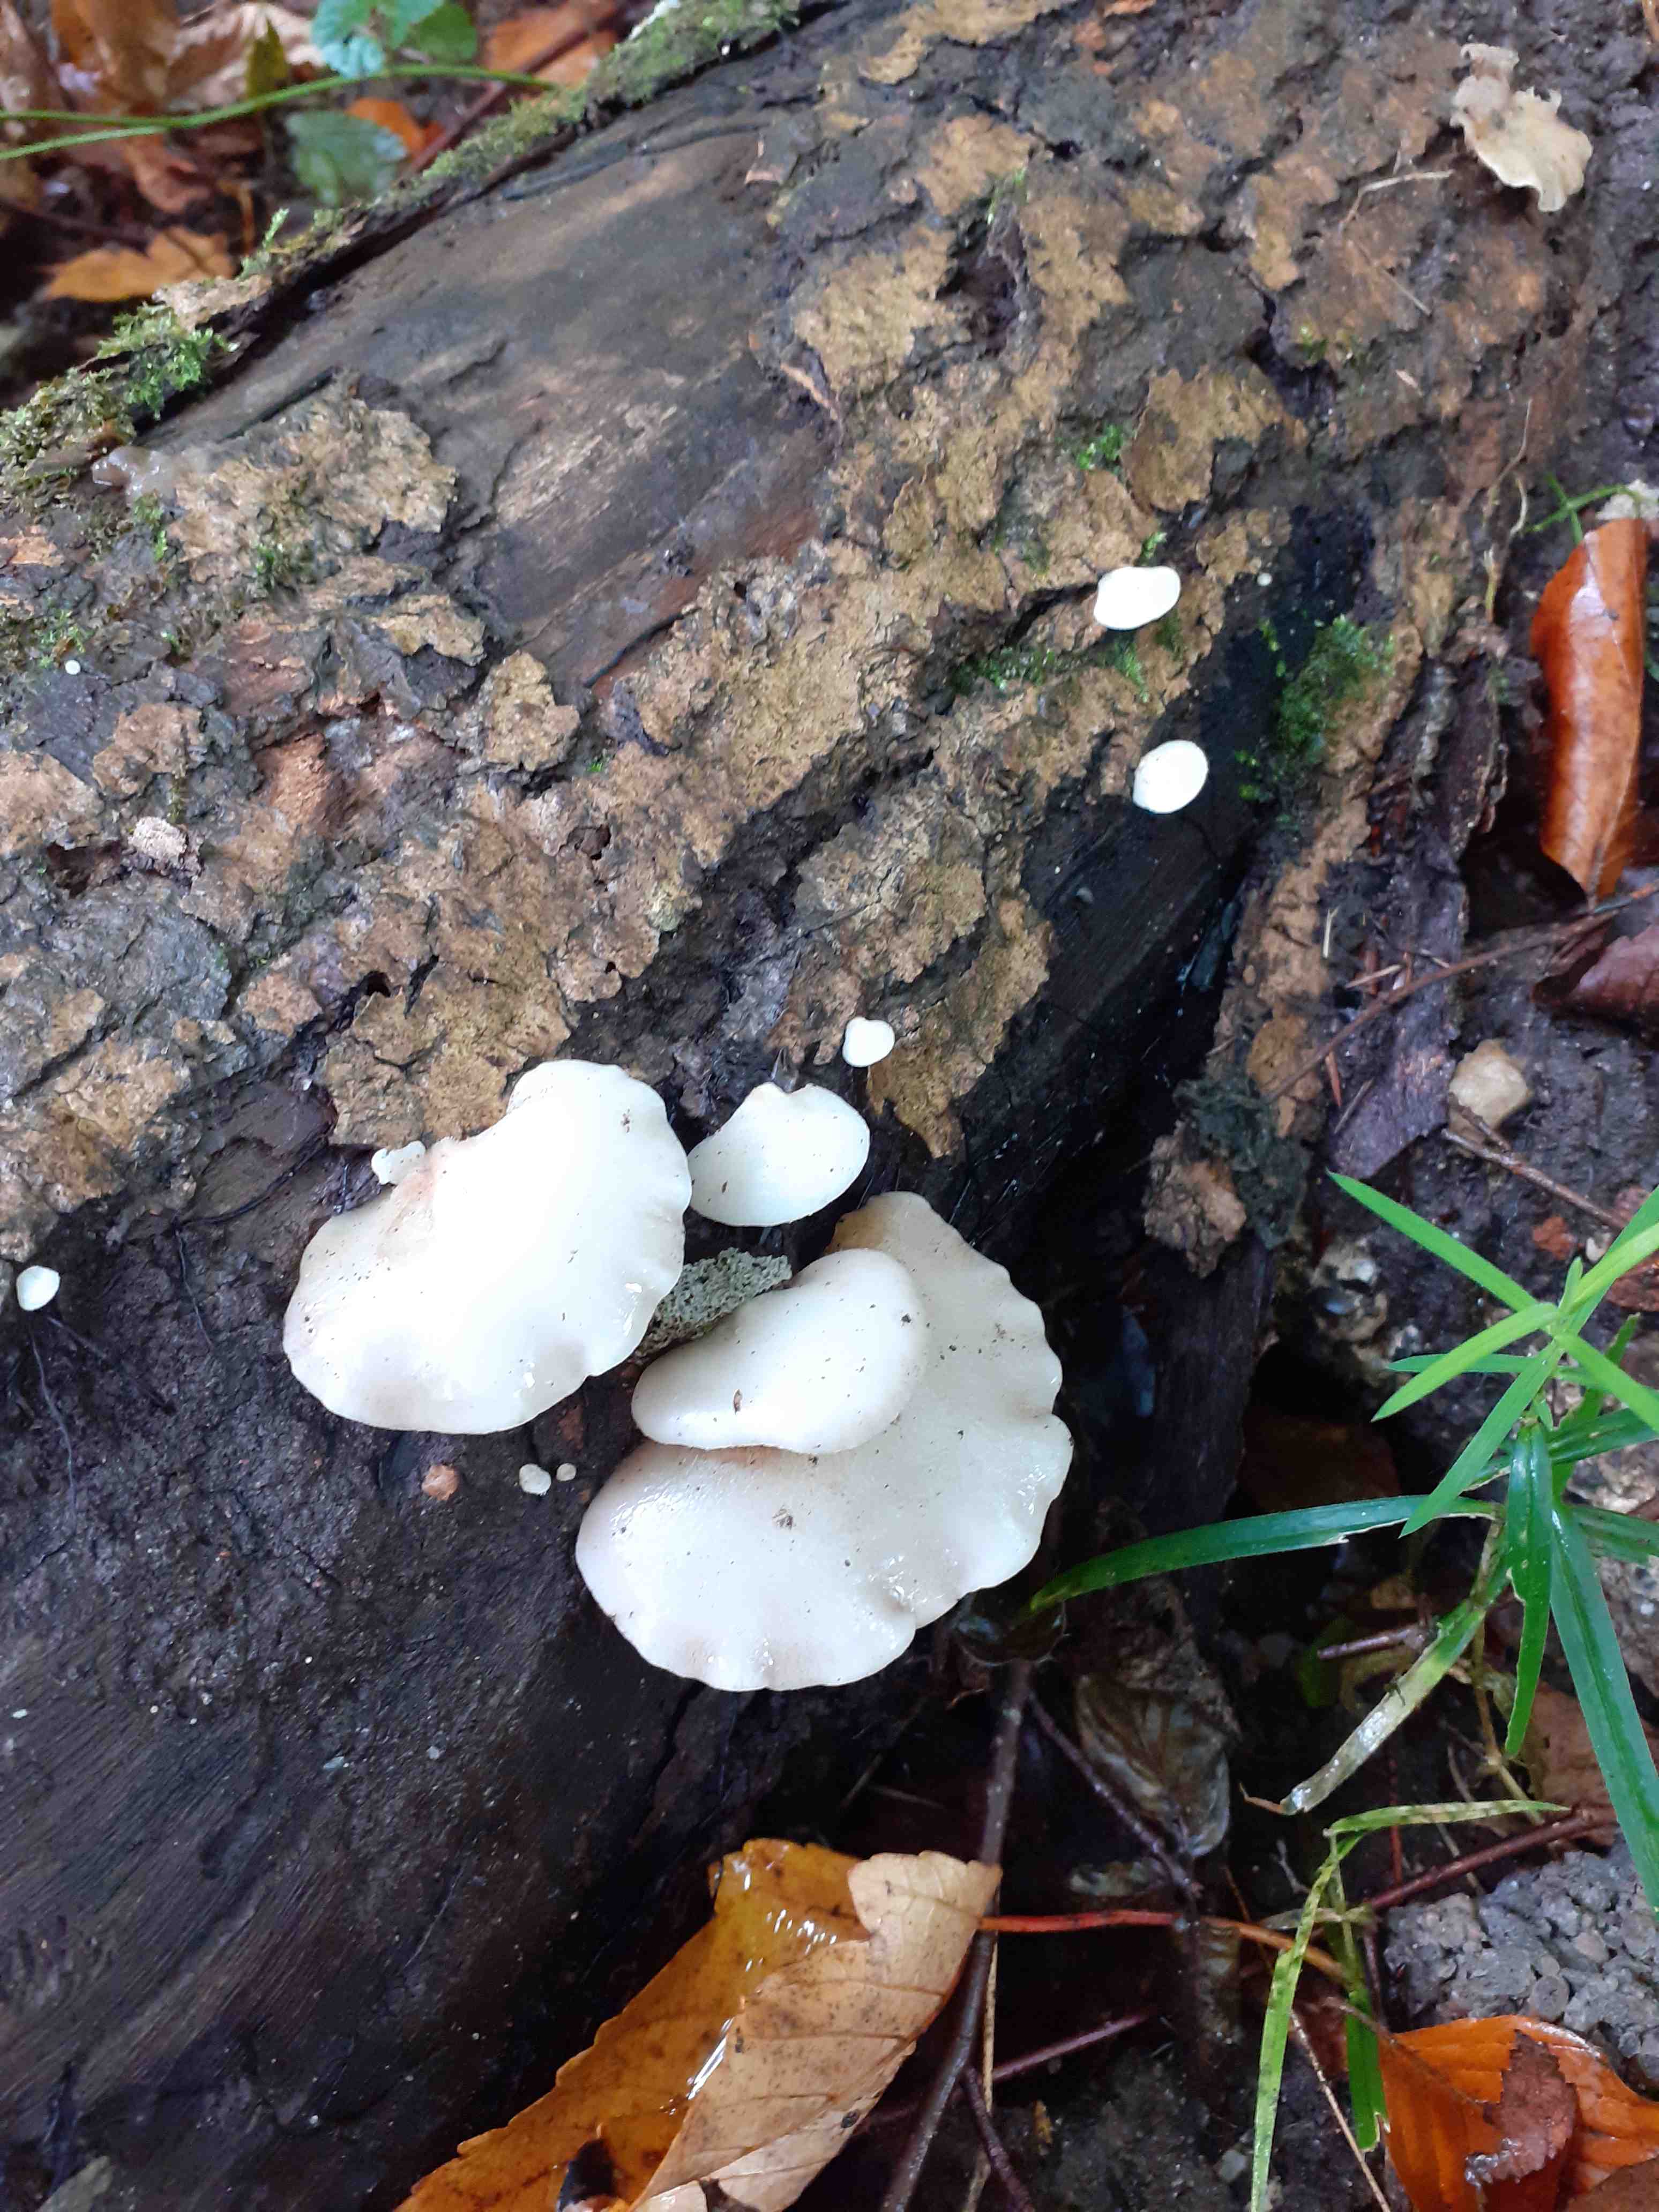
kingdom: Fungi
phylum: Basidiomycota
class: Agaricomycetes
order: Agaricales
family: Crepidotaceae
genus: Crepidotus
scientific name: Crepidotus mollis
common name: blød muslingesvamp
